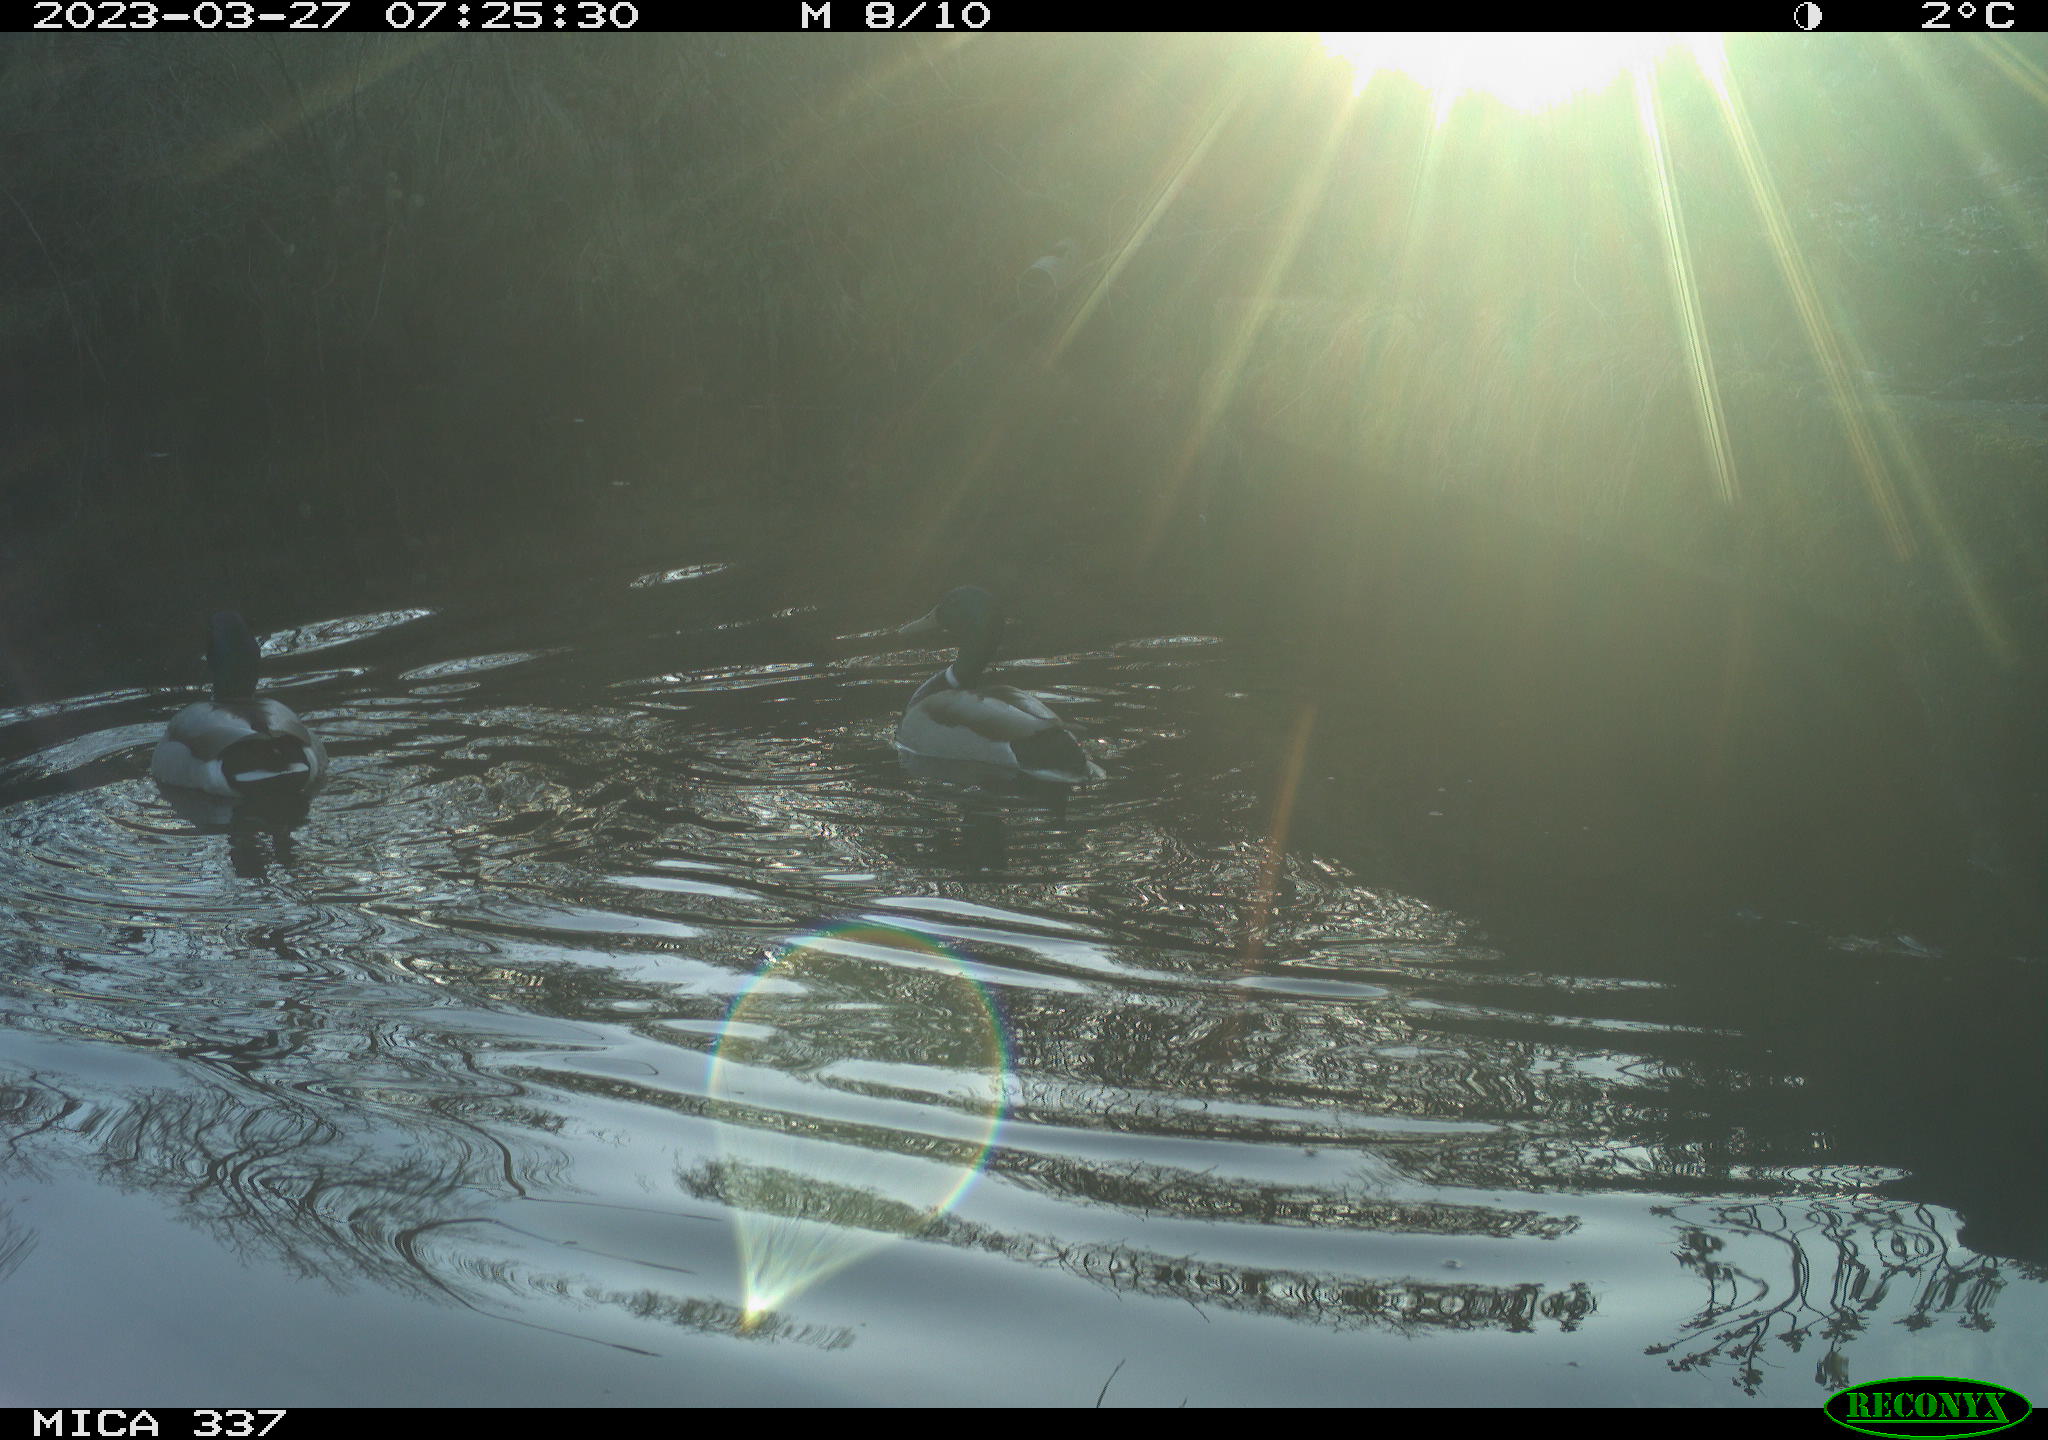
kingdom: Animalia
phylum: Chordata
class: Aves
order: Anseriformes
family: Anatidae
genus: Anas
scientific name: Anas
